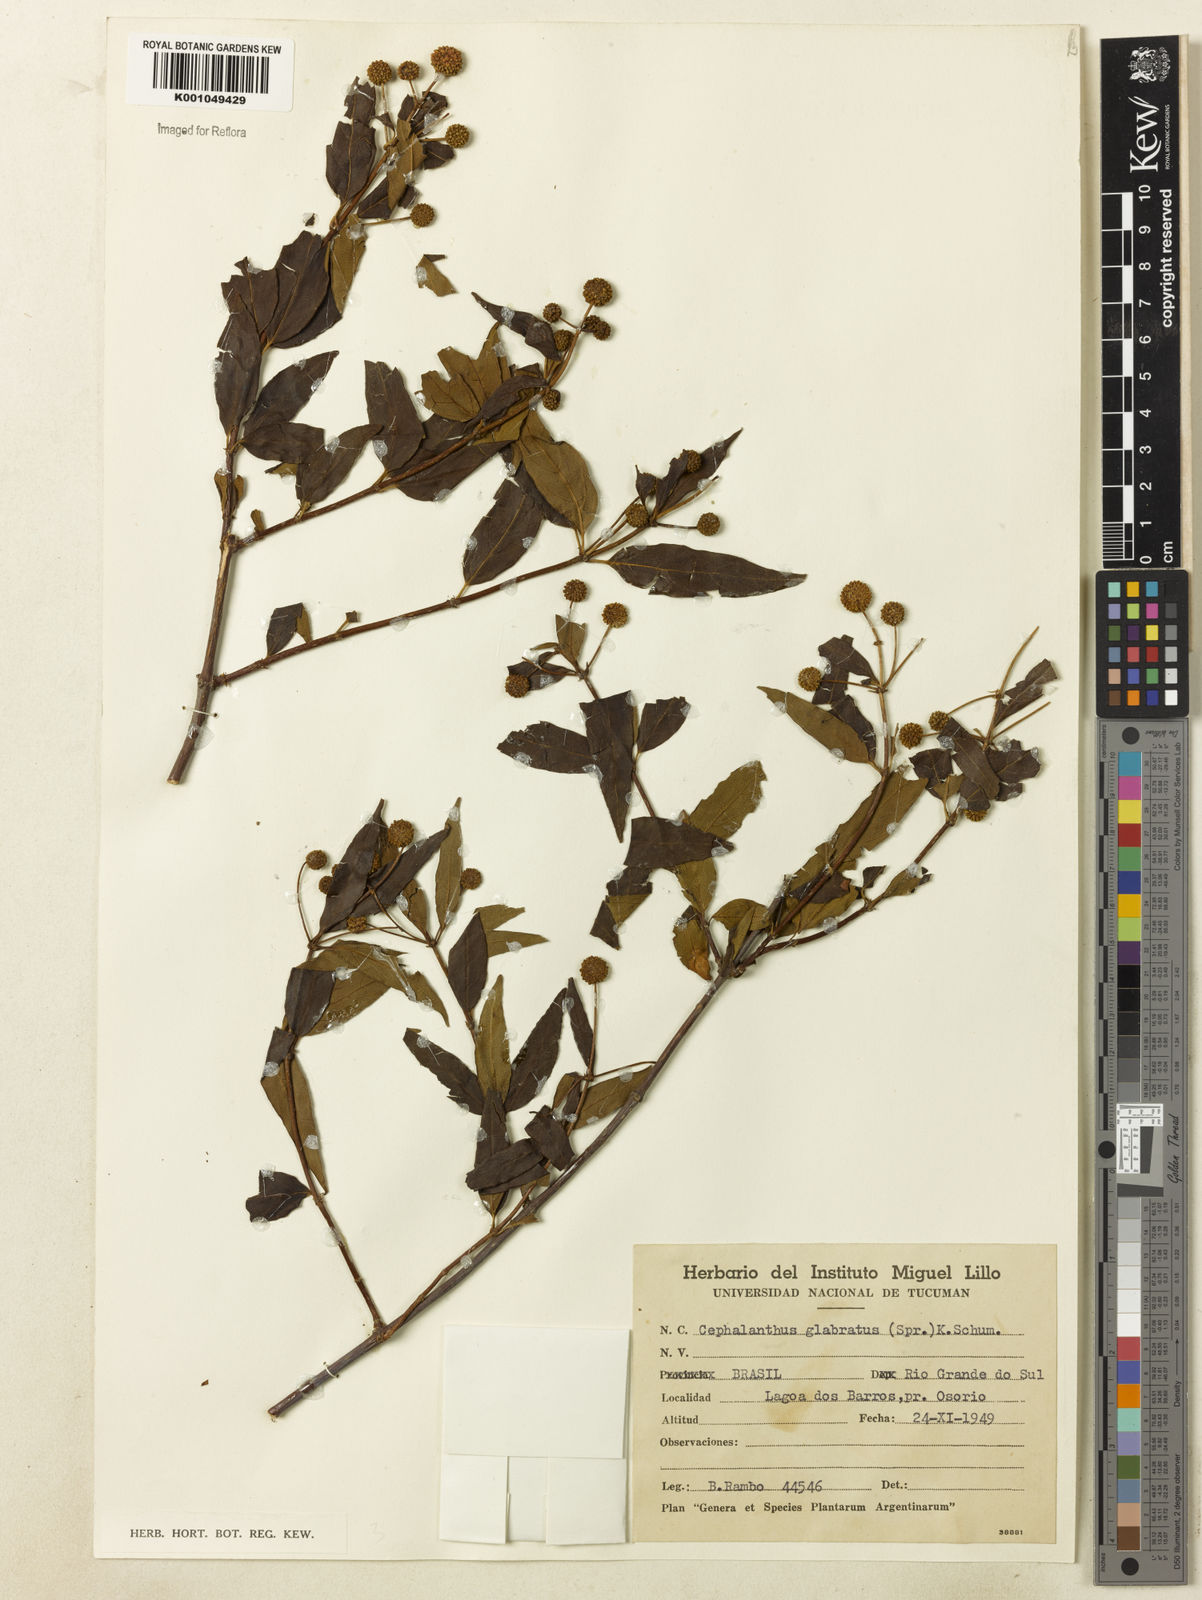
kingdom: Plantae
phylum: Tracheophyta
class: Magnoliopsida
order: Gentianales
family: Rubiaceae
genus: Cephalanthus
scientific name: Cephalanthus glabratus
